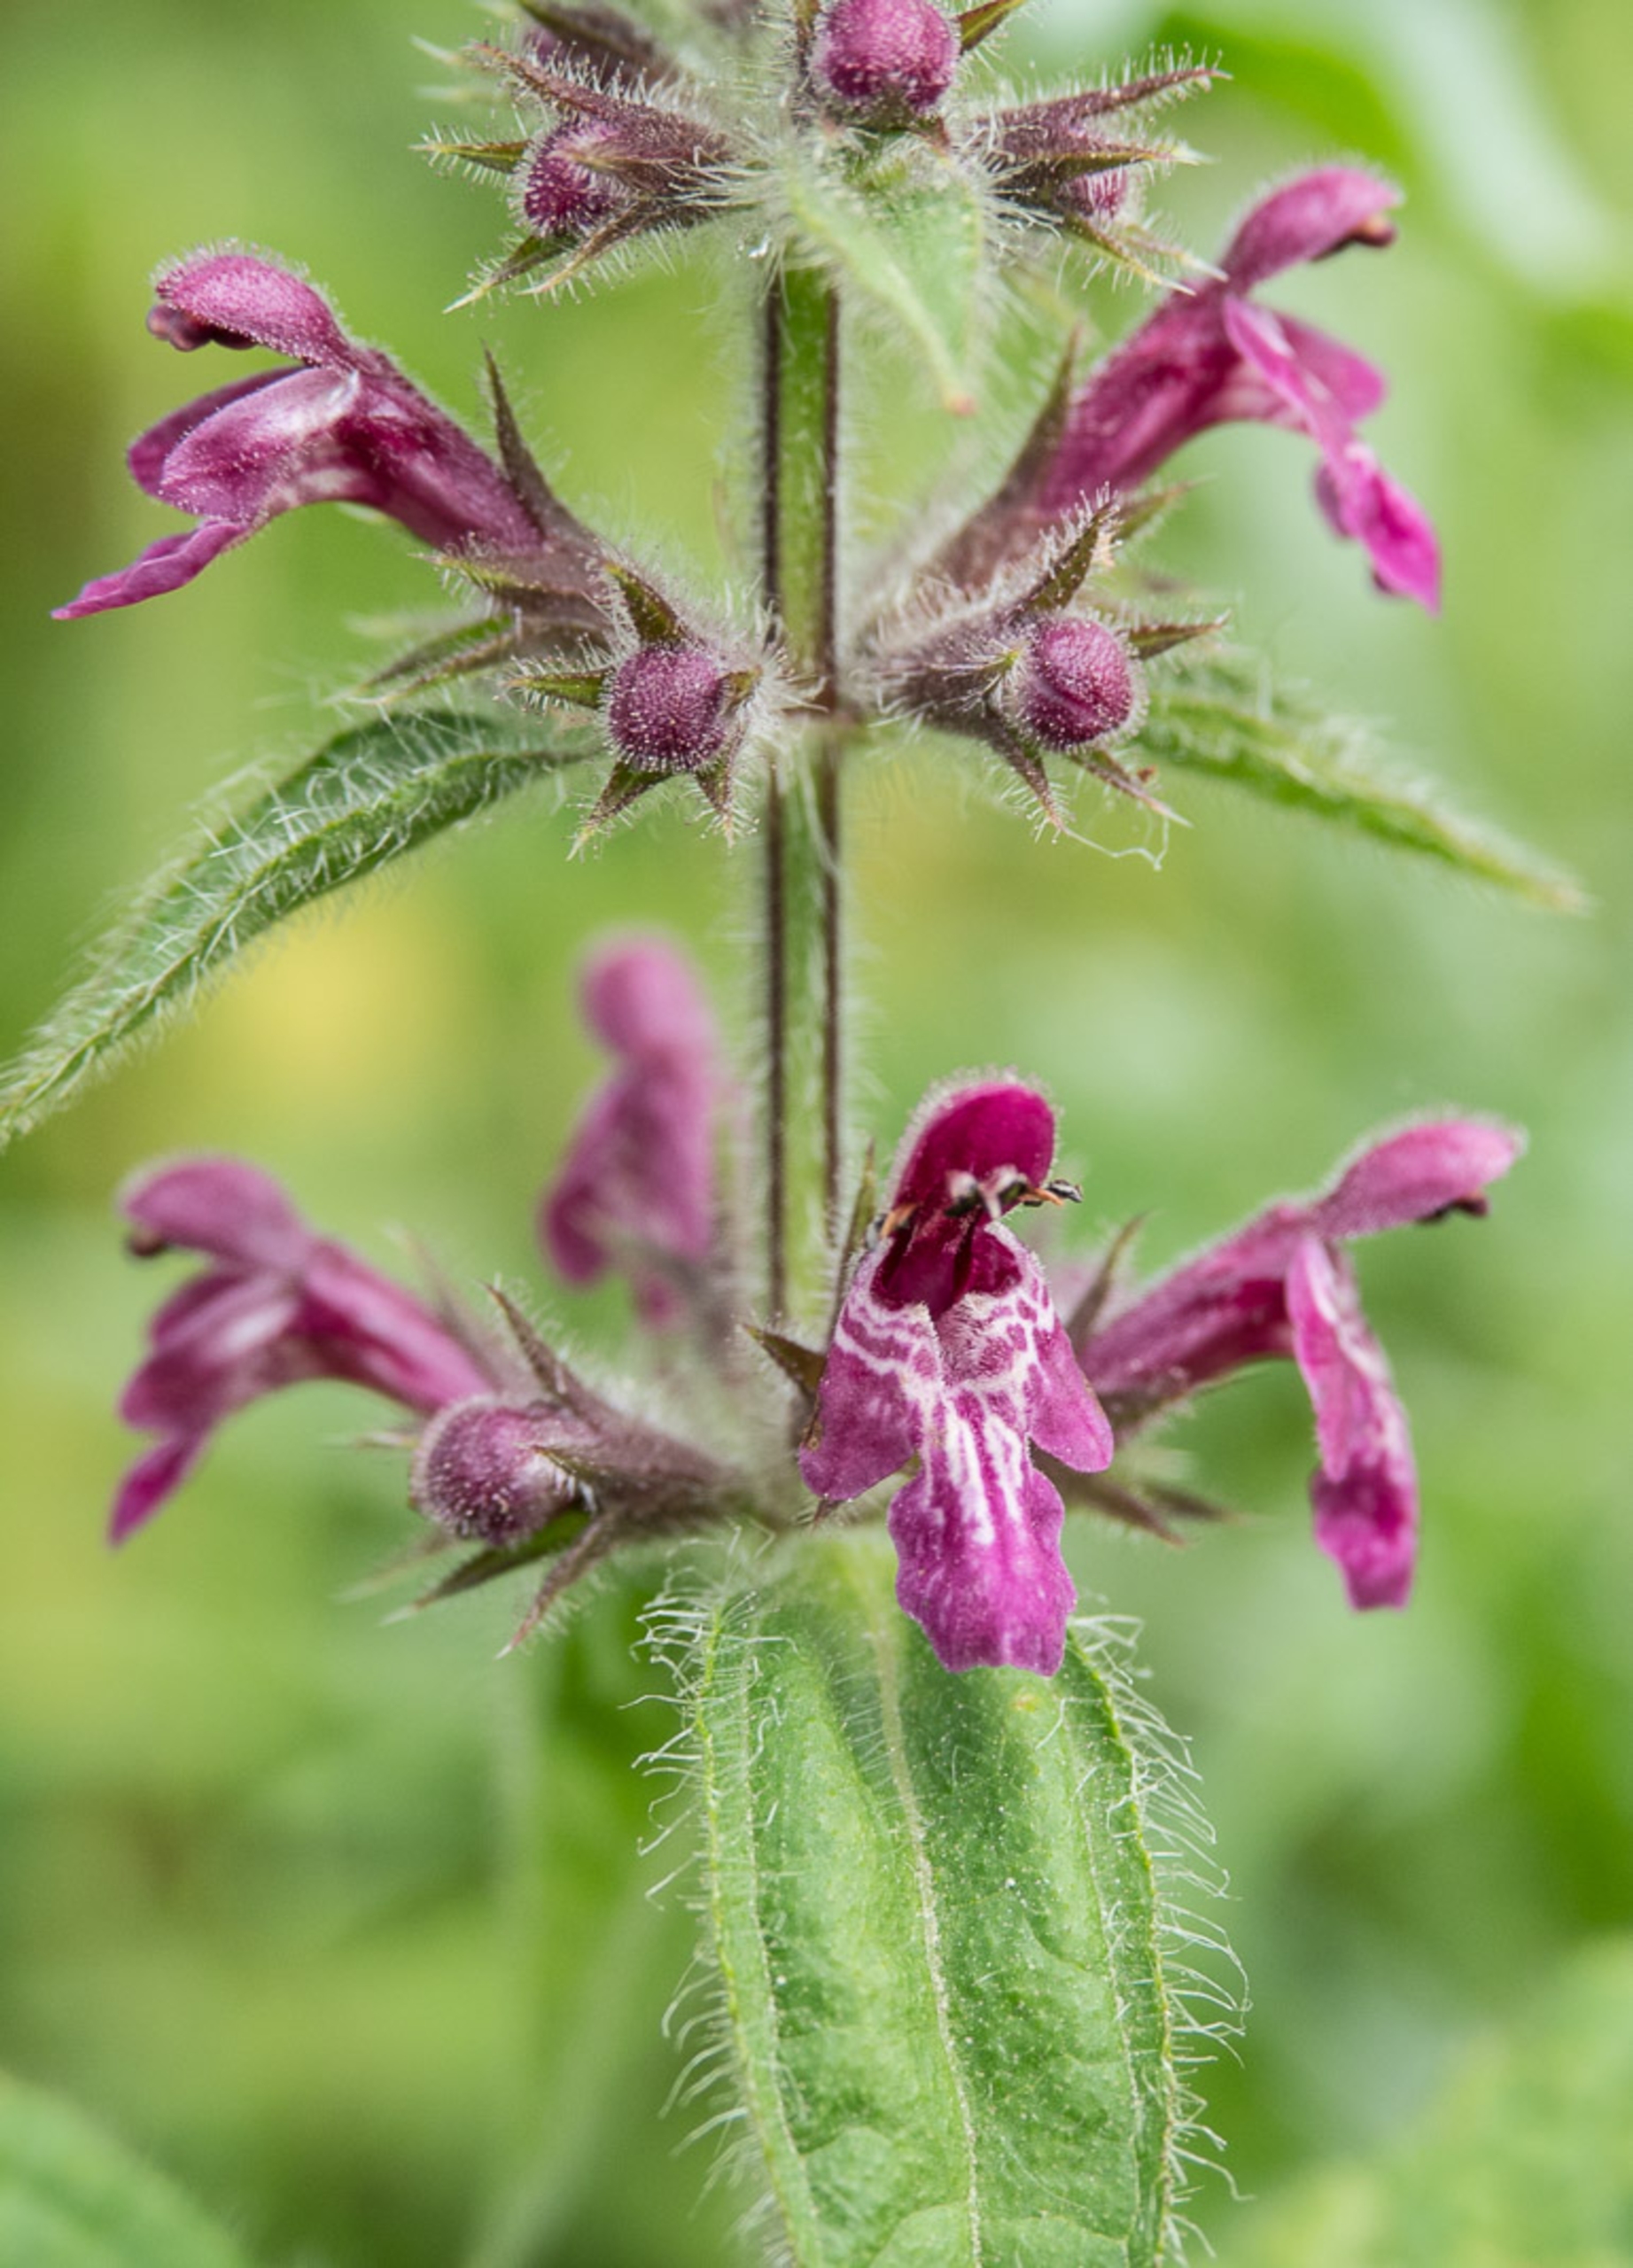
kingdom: Plantae
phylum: Tracheophyta
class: Magnoliopsida
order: Lamiales
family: Lamiaceae
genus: Stachys
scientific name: Stachys sylvatica
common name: Skov-galtetand
